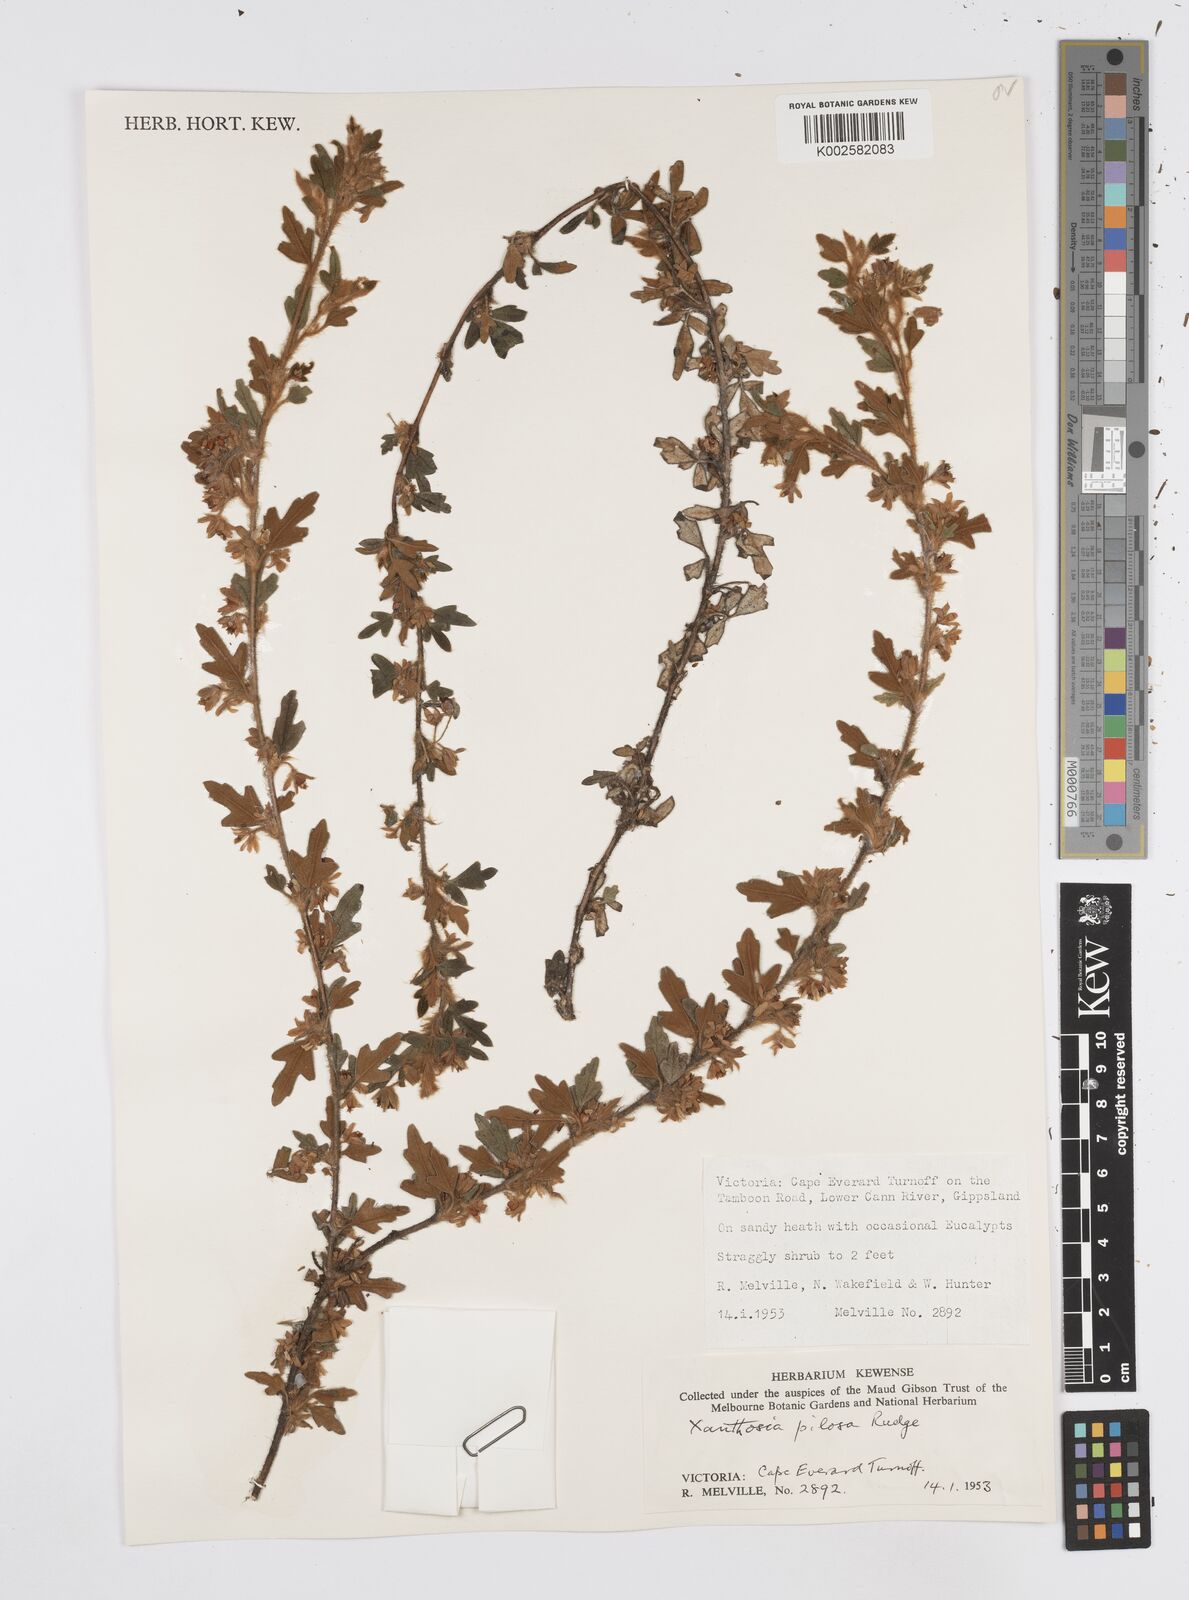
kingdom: Plantae
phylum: Tracheophyta
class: Magnoliopsida
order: Apiales
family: Apiaceae
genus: Xanthosia
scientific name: Xanthosia pilosa
